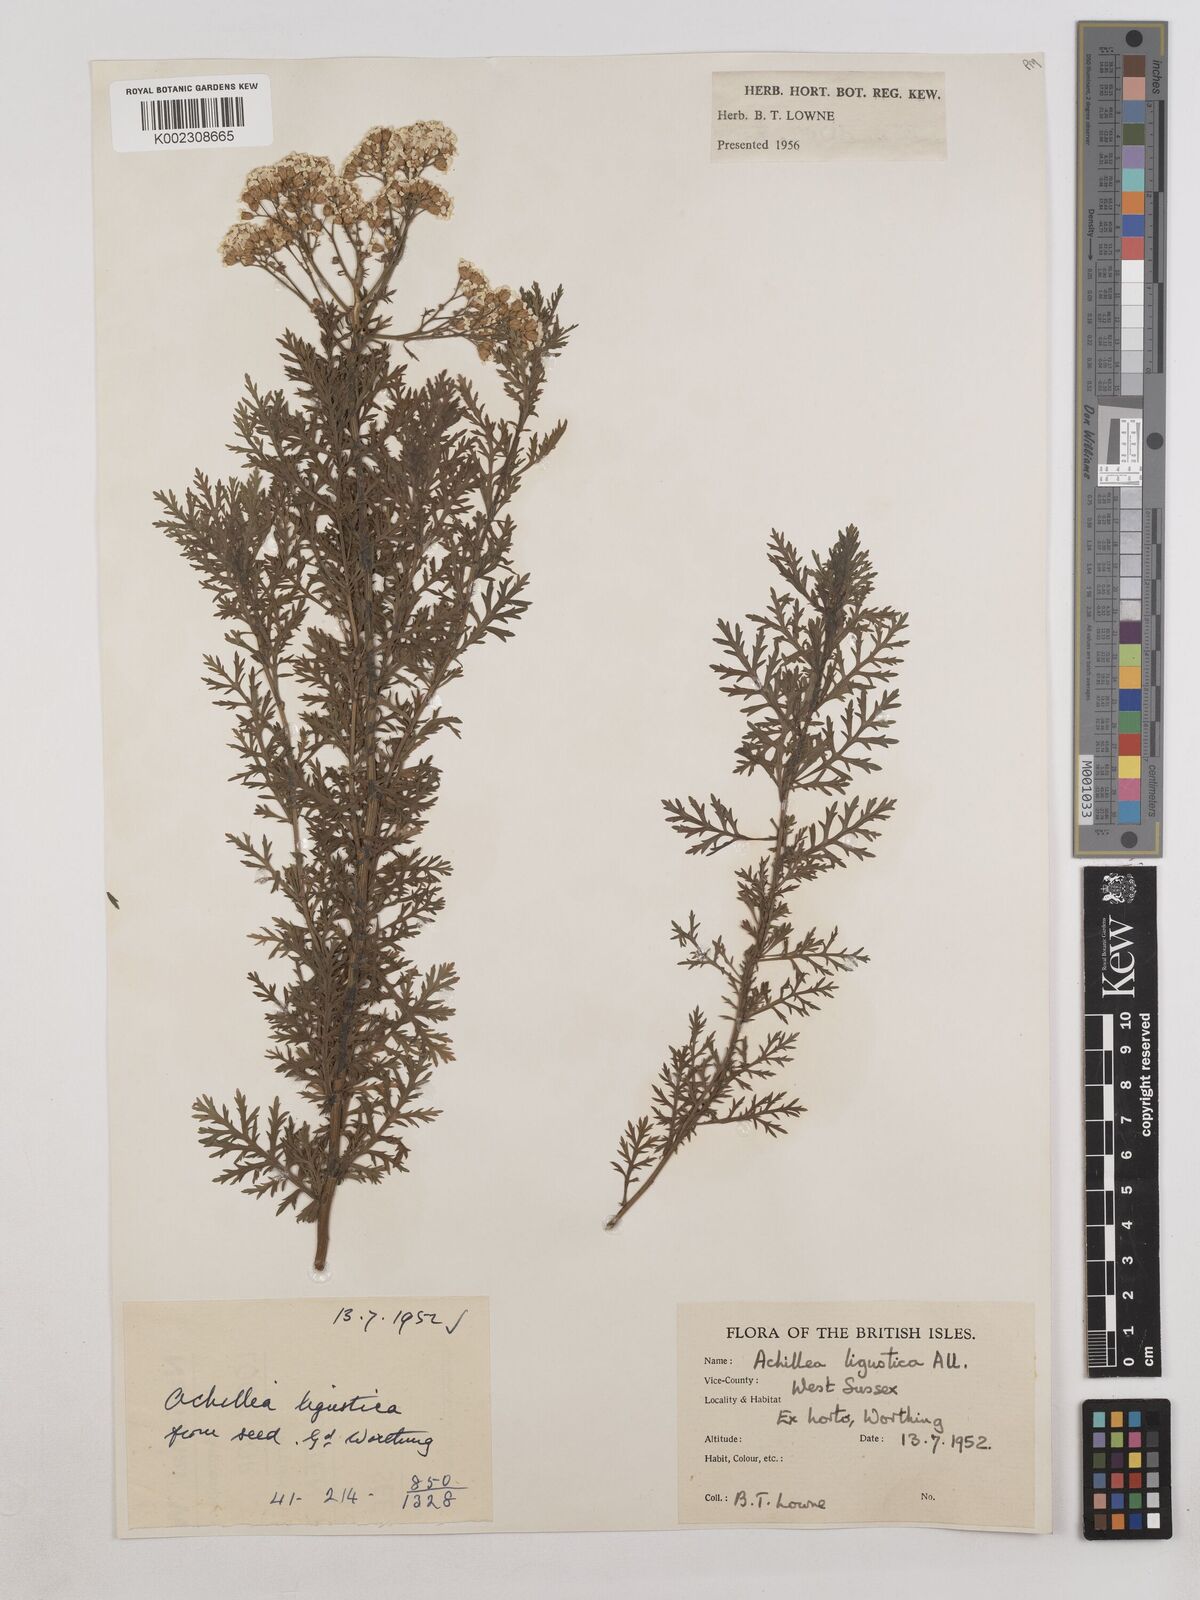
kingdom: Plantae
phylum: Tracheophyta
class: Magnoliopsida
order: Asterales
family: Asteraceae
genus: Achillea
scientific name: Achillea ligustica
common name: Southern yarrow
